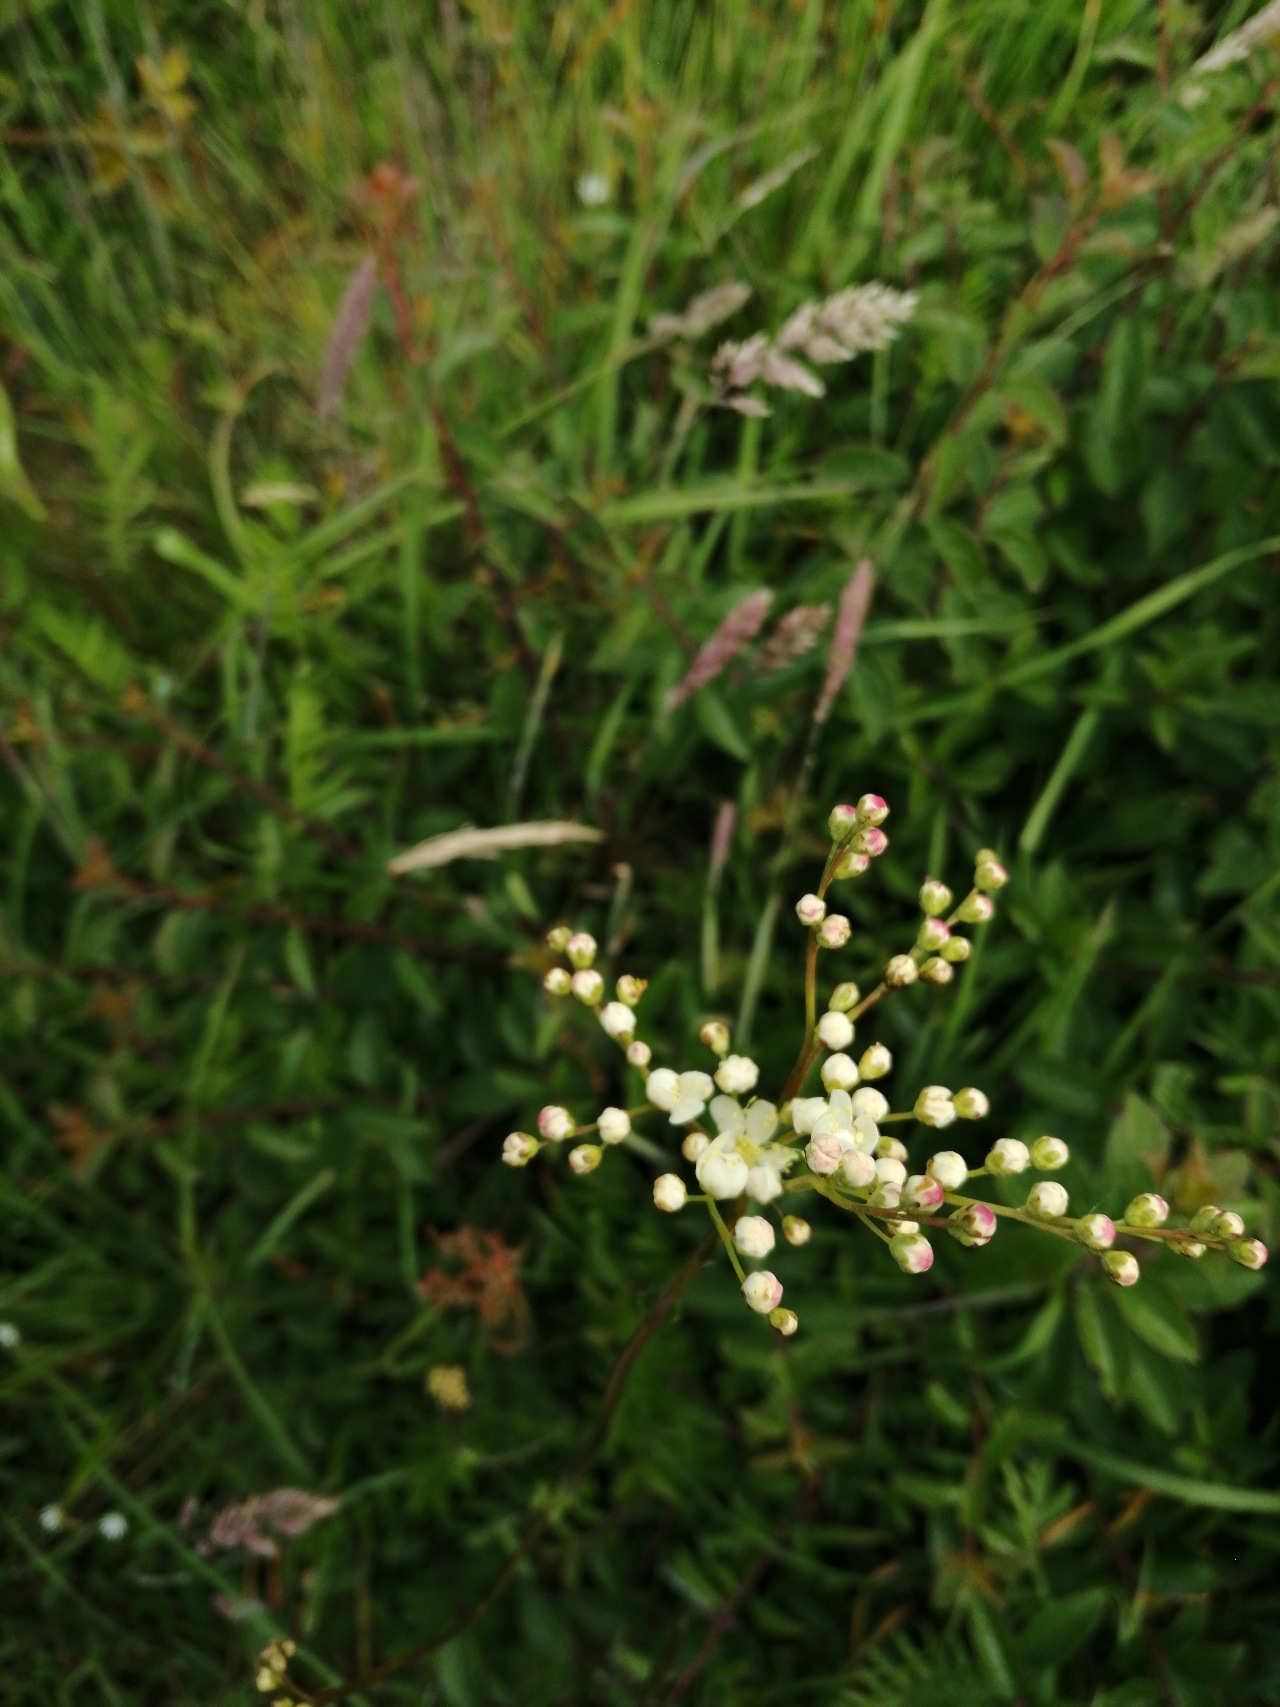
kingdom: Plantae
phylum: Tracheophyta
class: Magnoliopsida
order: Rosales
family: Rosaceae
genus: Filipendula
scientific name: Filipendula vulgaris
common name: Knoldet mjødurt
